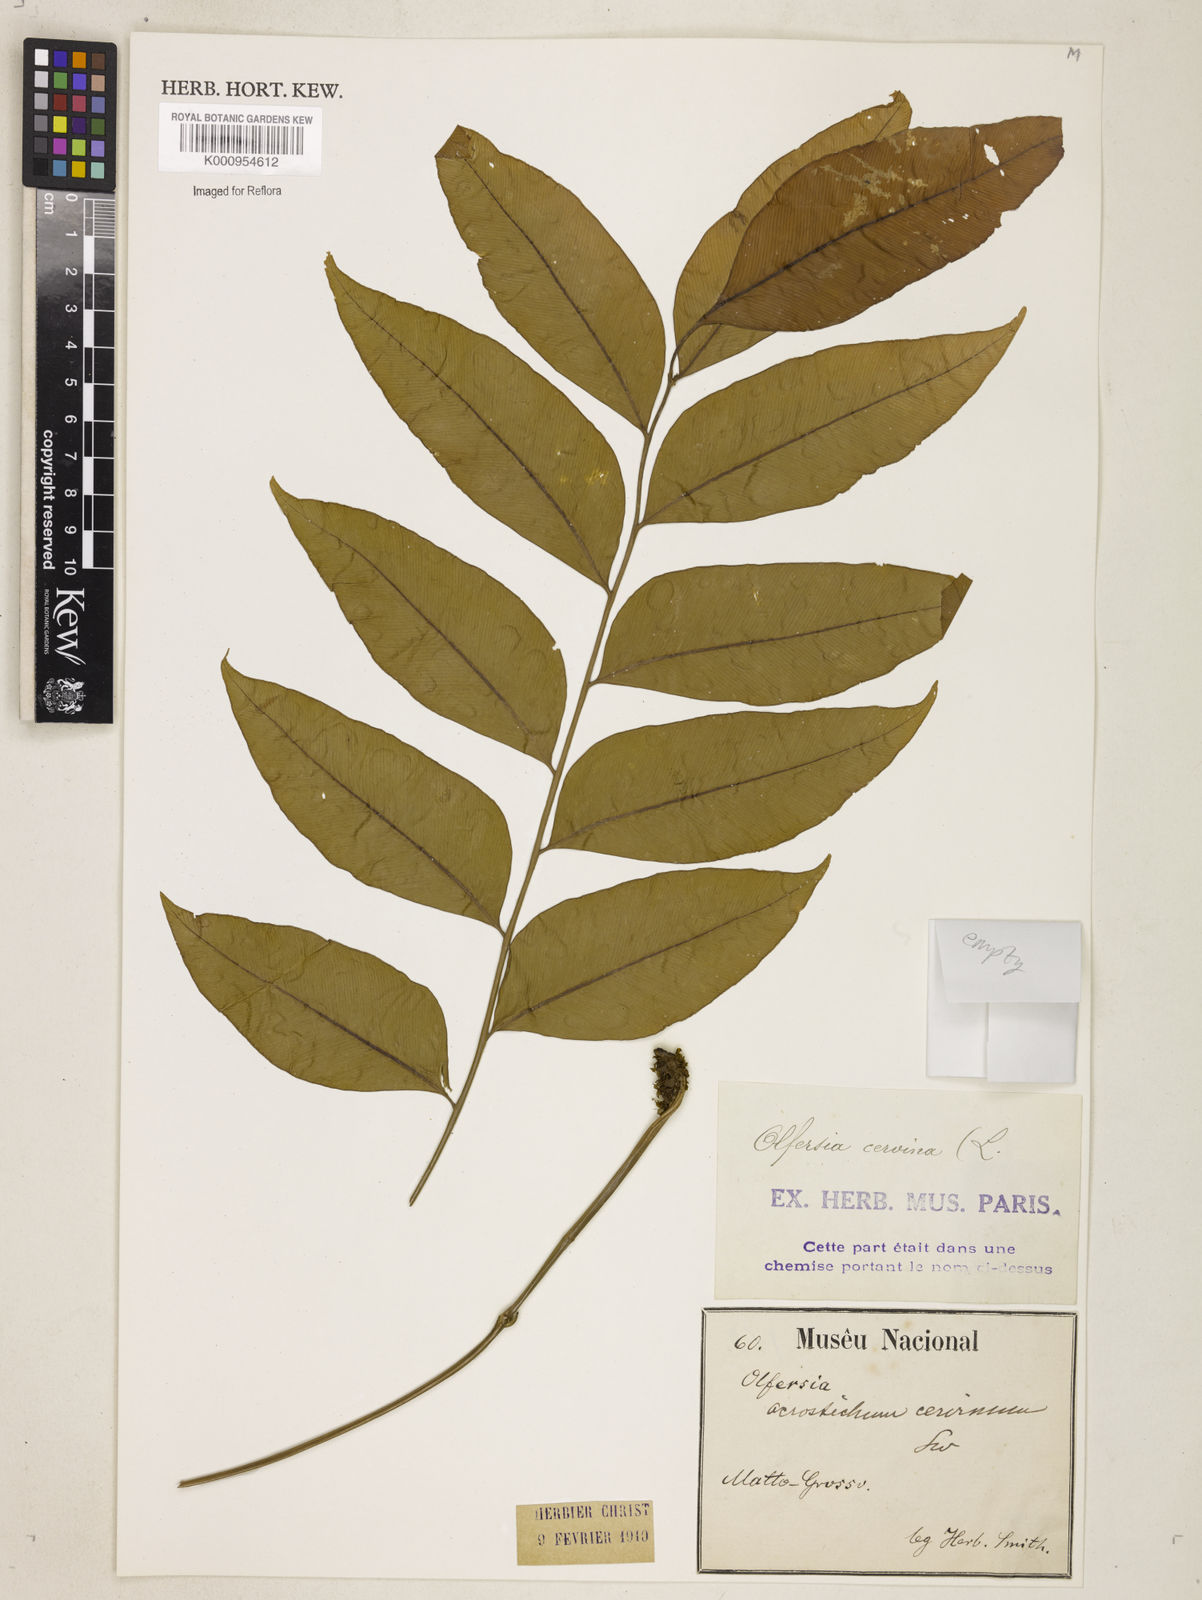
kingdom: Plantae
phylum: Tracheophyta
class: Polypodiopsida
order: Polypodiales
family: Dryopteridaceae
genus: Polystichum
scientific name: Polystichum
